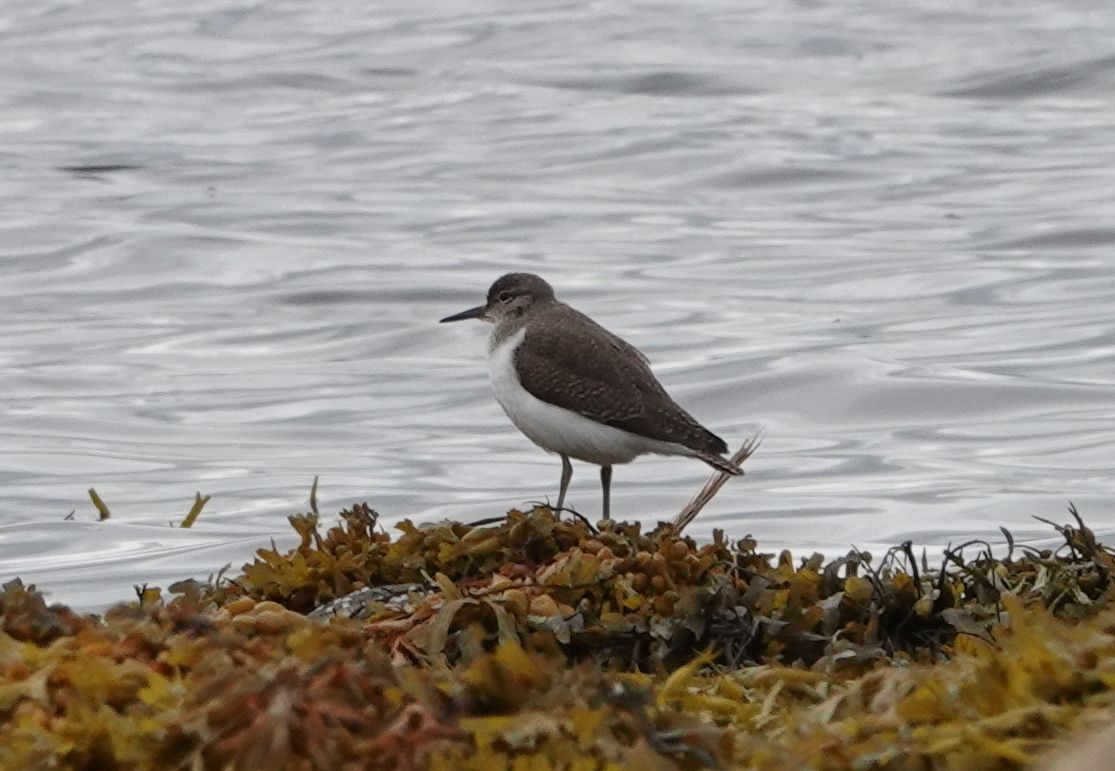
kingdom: Animalia
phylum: Chordata
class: Aves
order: Charadriiformes
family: Scolopacidae
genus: Actitis
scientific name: Actitis hypoleucos
